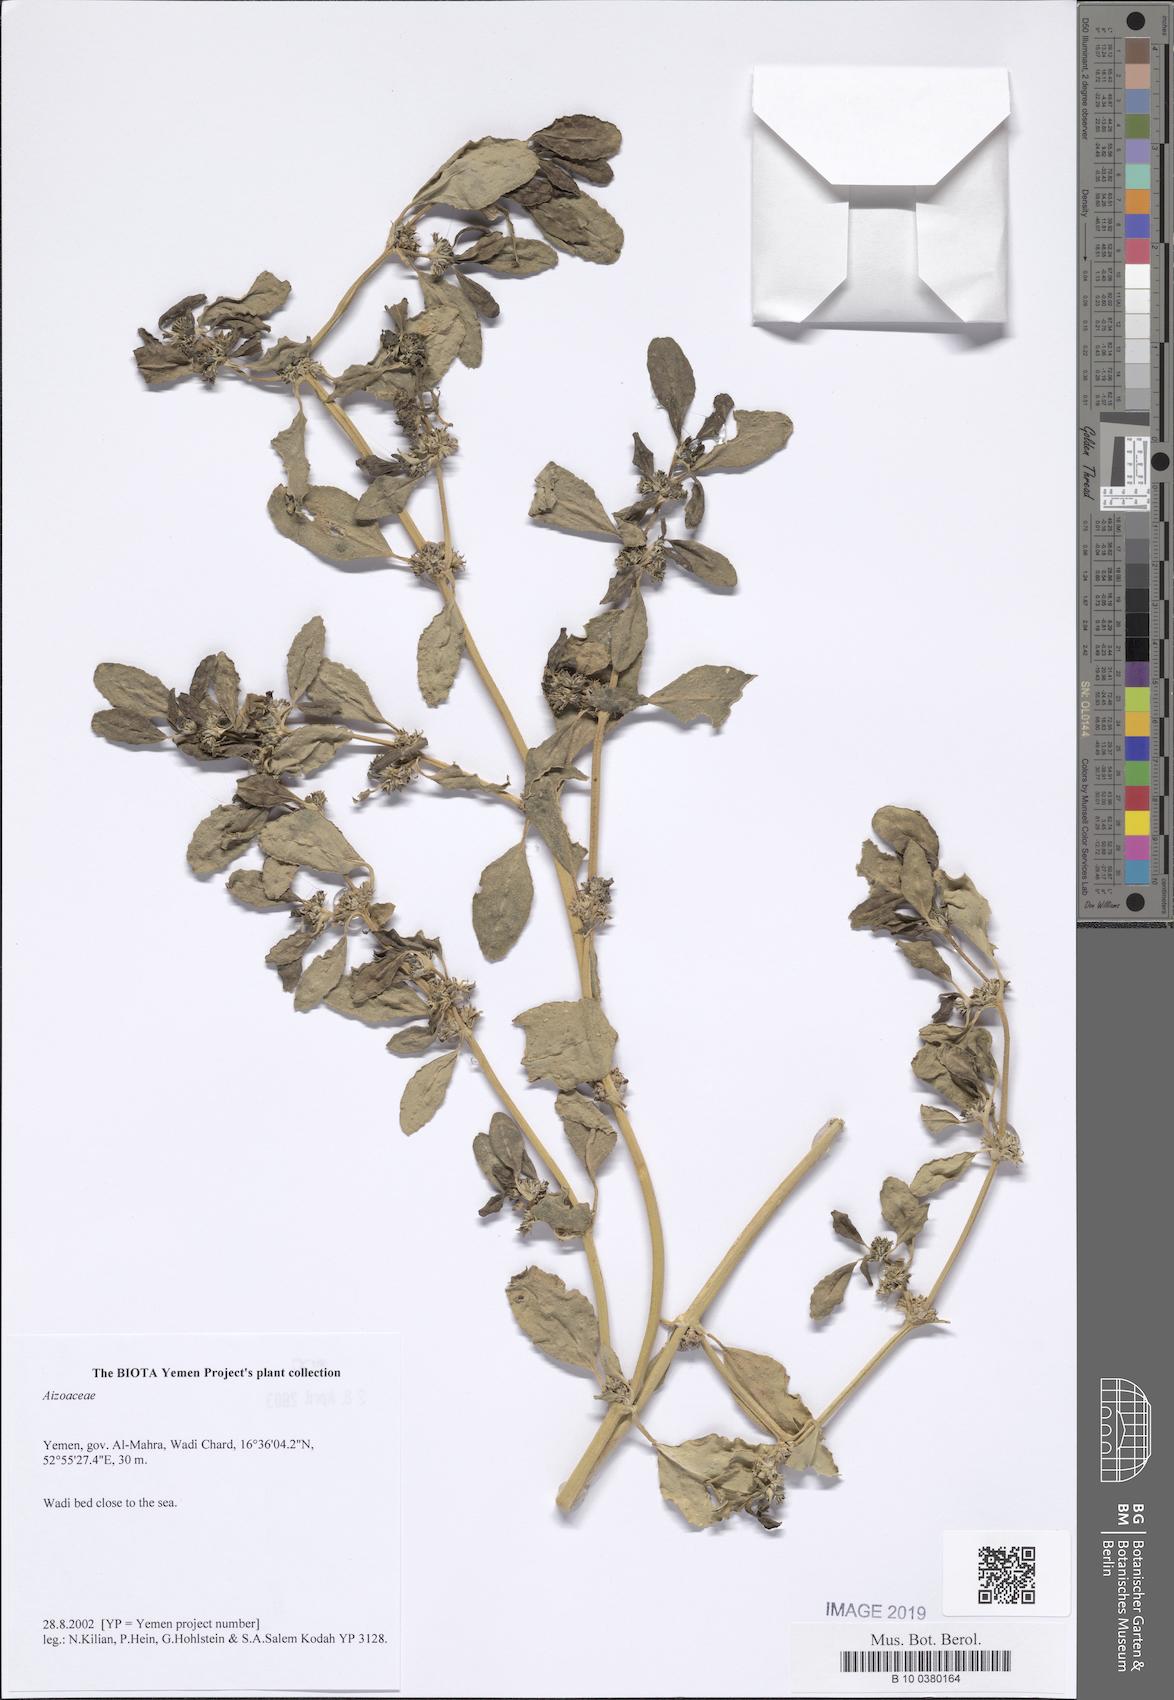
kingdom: Plantae
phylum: Tracheophyta
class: Magnoliopsida
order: Caryophyllales
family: Aizoaceae
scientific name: Aizoaceae
